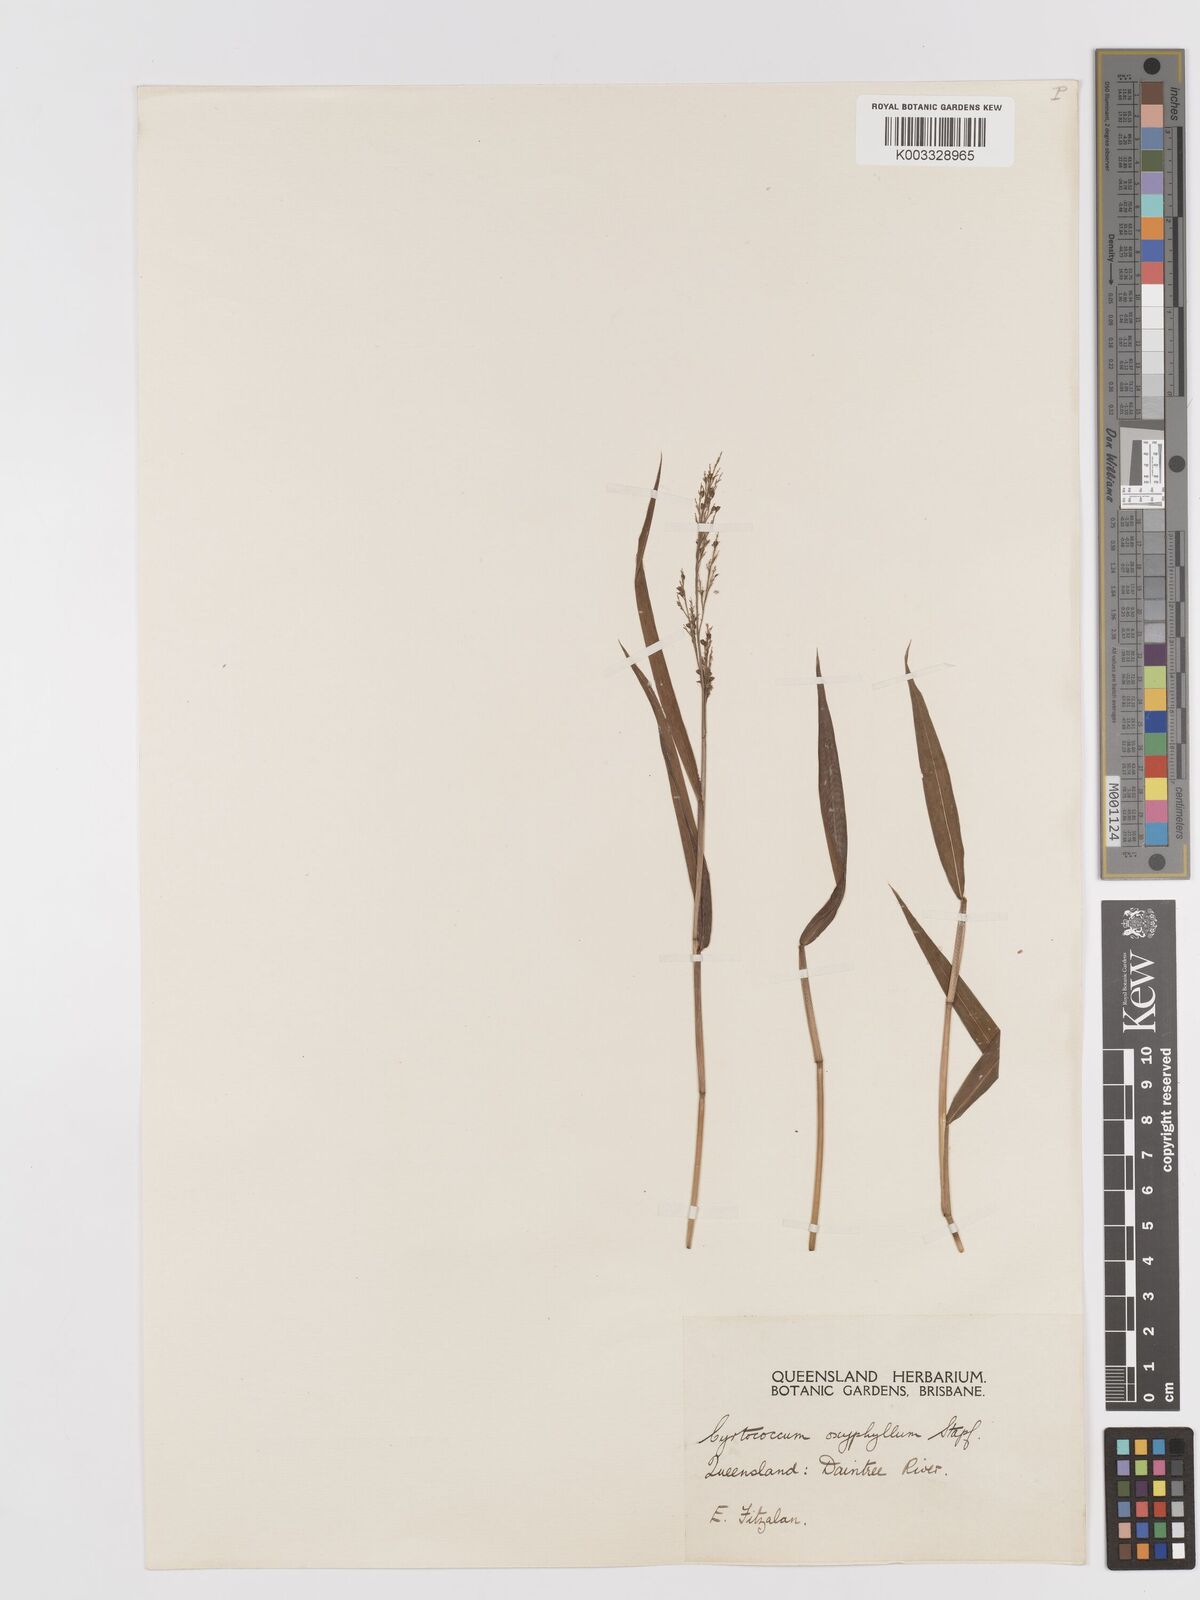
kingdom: Plantae
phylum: Tracheophyta
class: Liliopsida
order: Poales
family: Poaceae
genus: Cyrtococcum
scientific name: Cyrtococcum oxyphyllum
